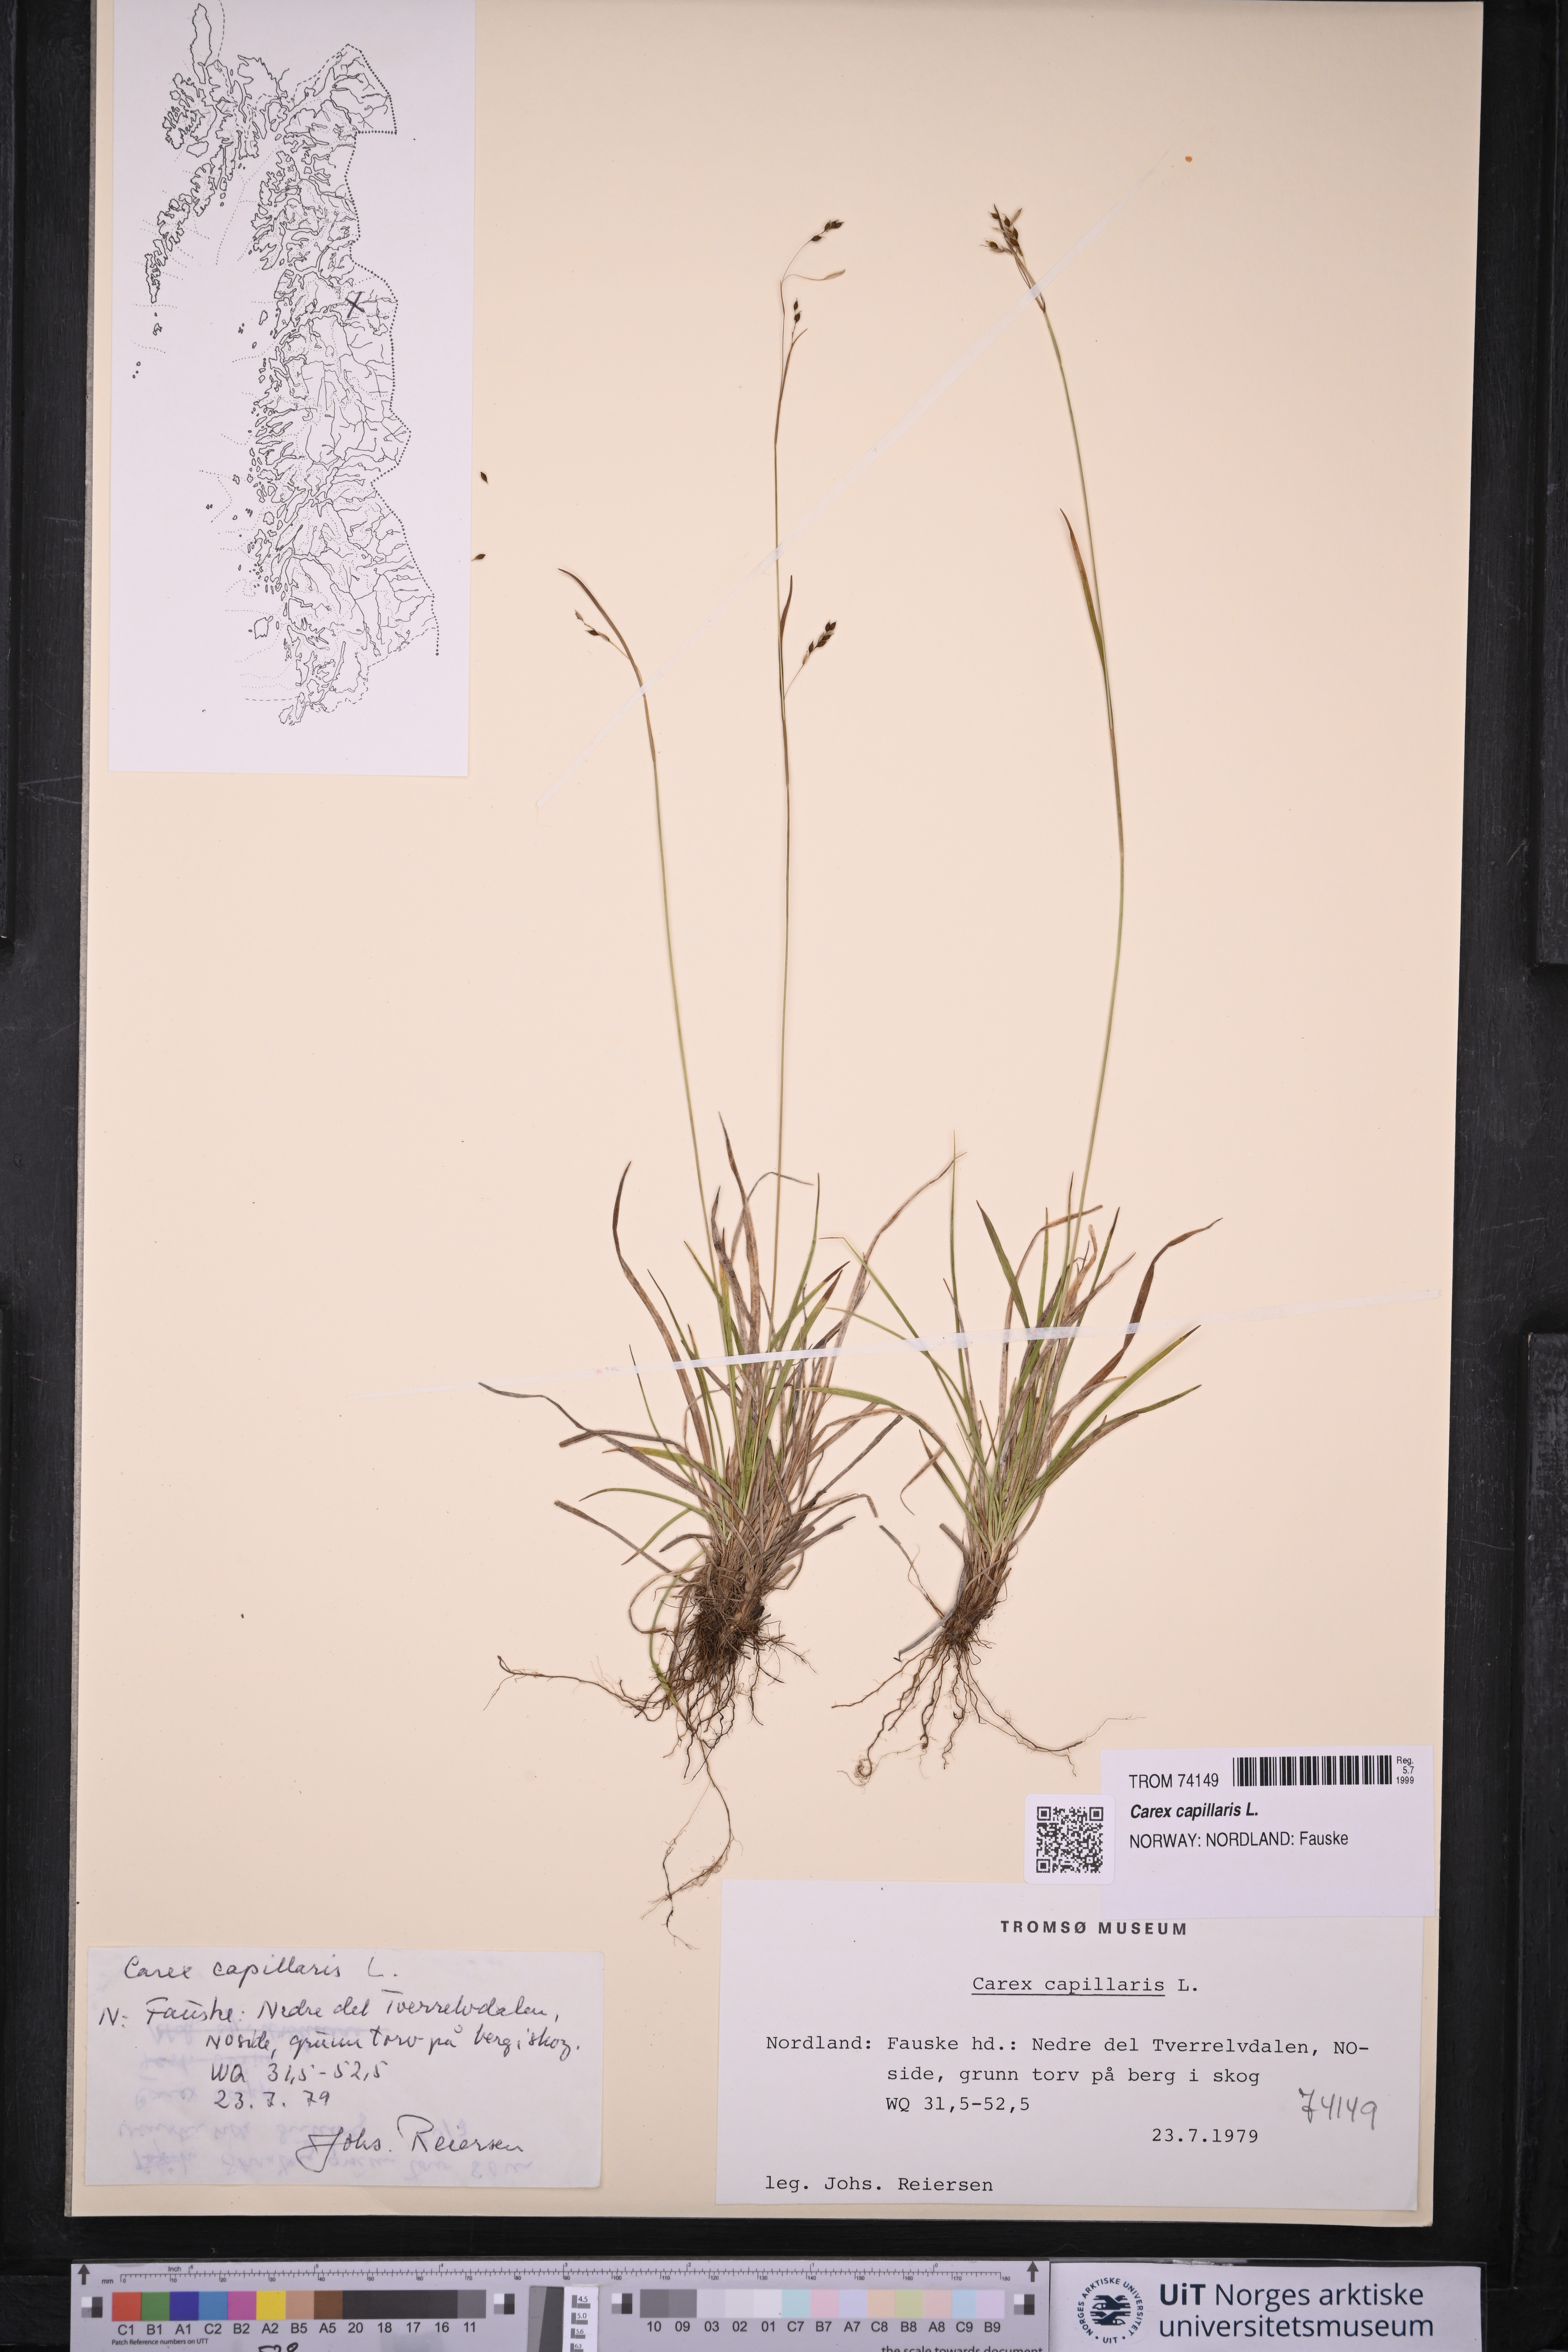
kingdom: Plantae
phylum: Tracheophyta
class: Liliopsida
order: Poales
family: Cyperaceae
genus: Carex
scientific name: Carex capillaris
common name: Hair sedge
